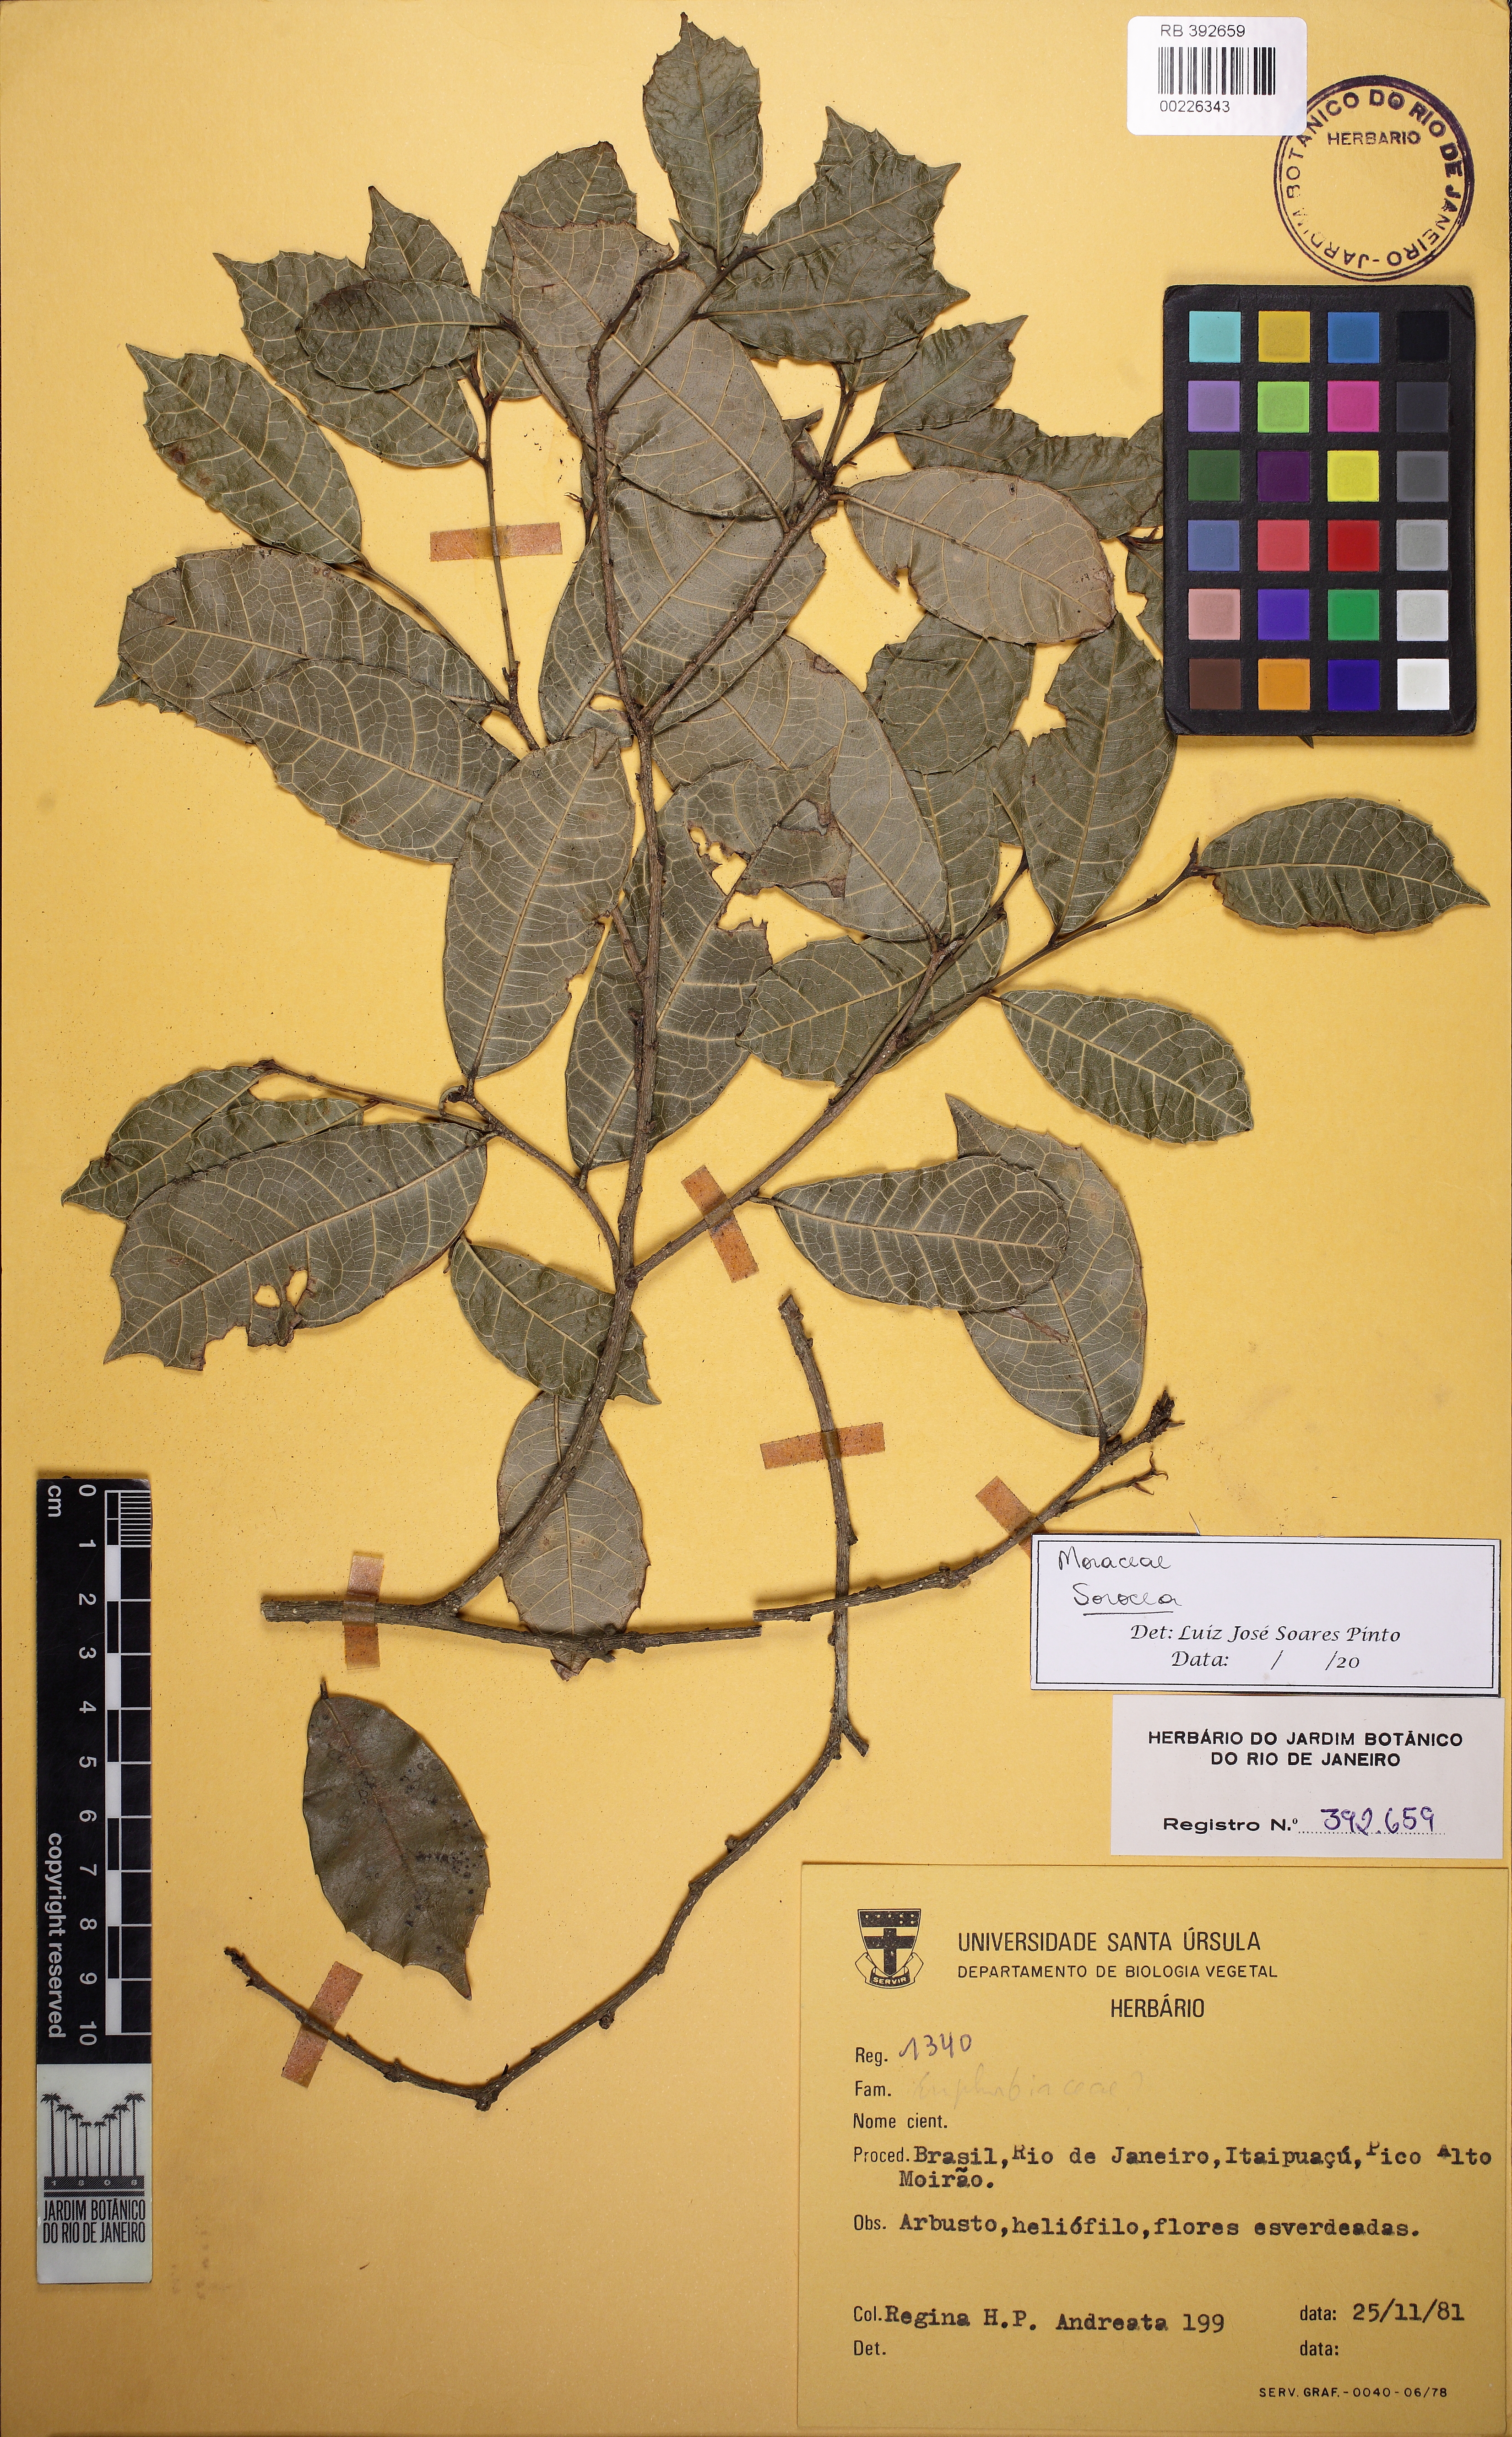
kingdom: Plantae
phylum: Tracheophyta
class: Magnoliopsida
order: Rosales
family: Moraceae
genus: Sorocea
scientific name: Sorocea
